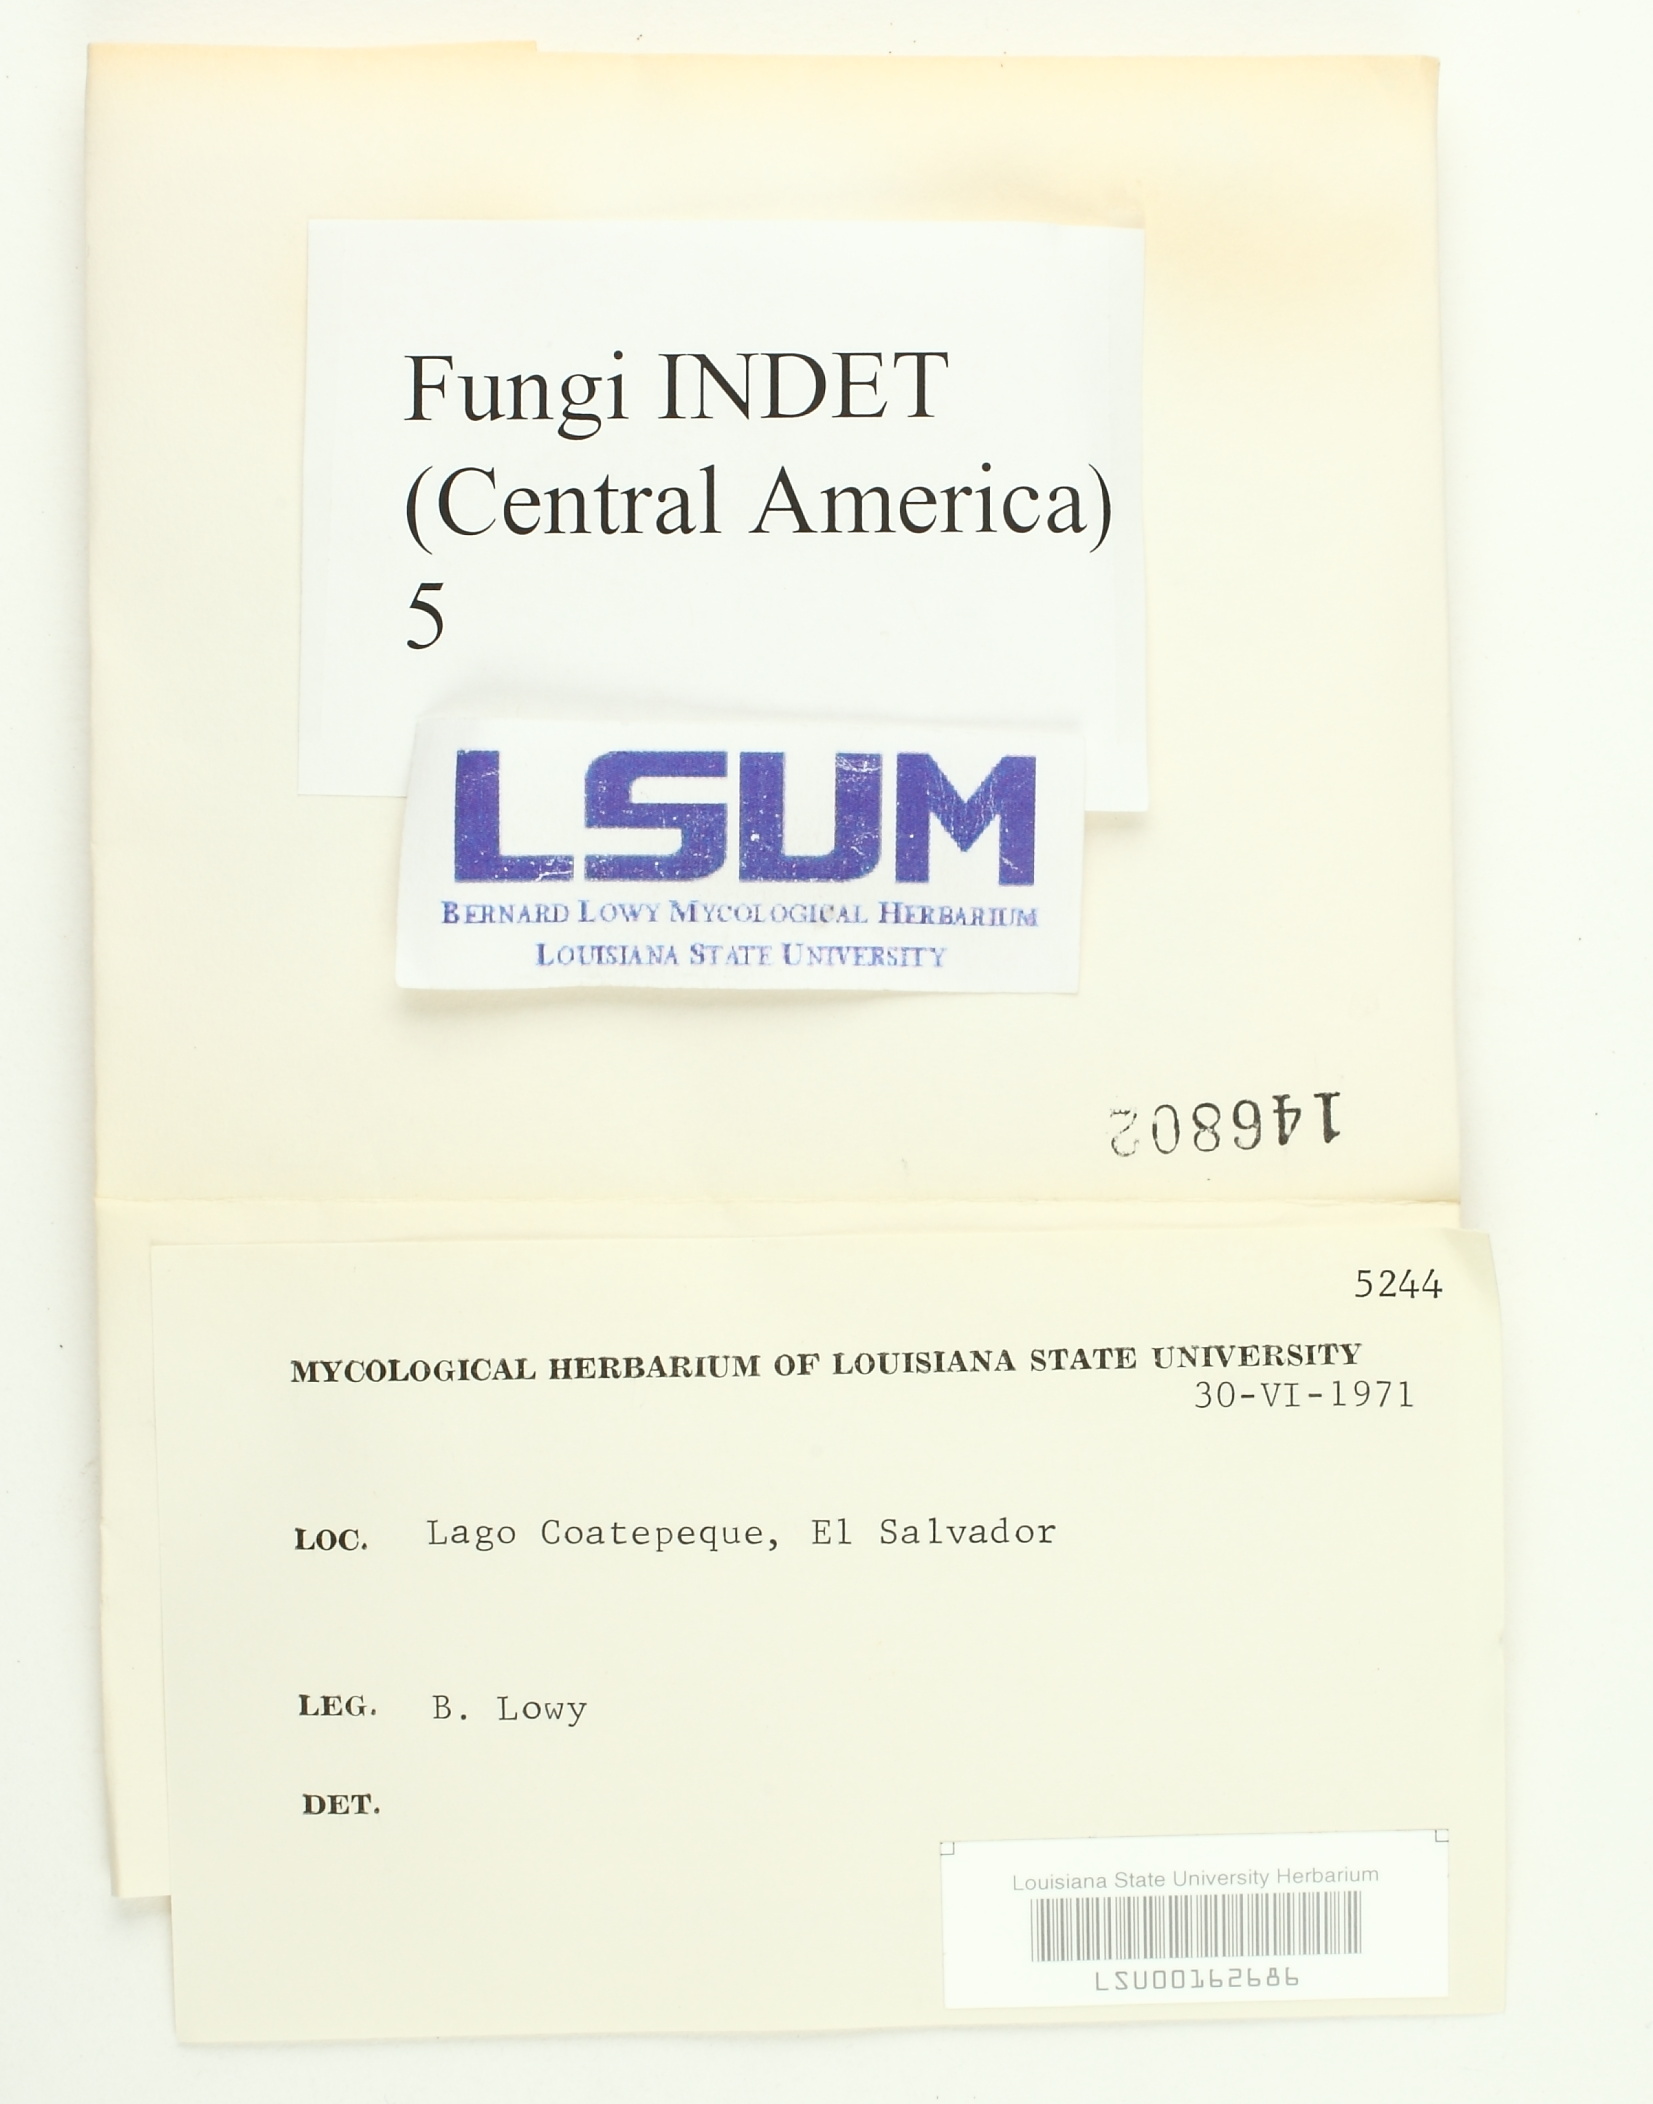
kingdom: Fungi
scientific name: Fungi
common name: Fungi
